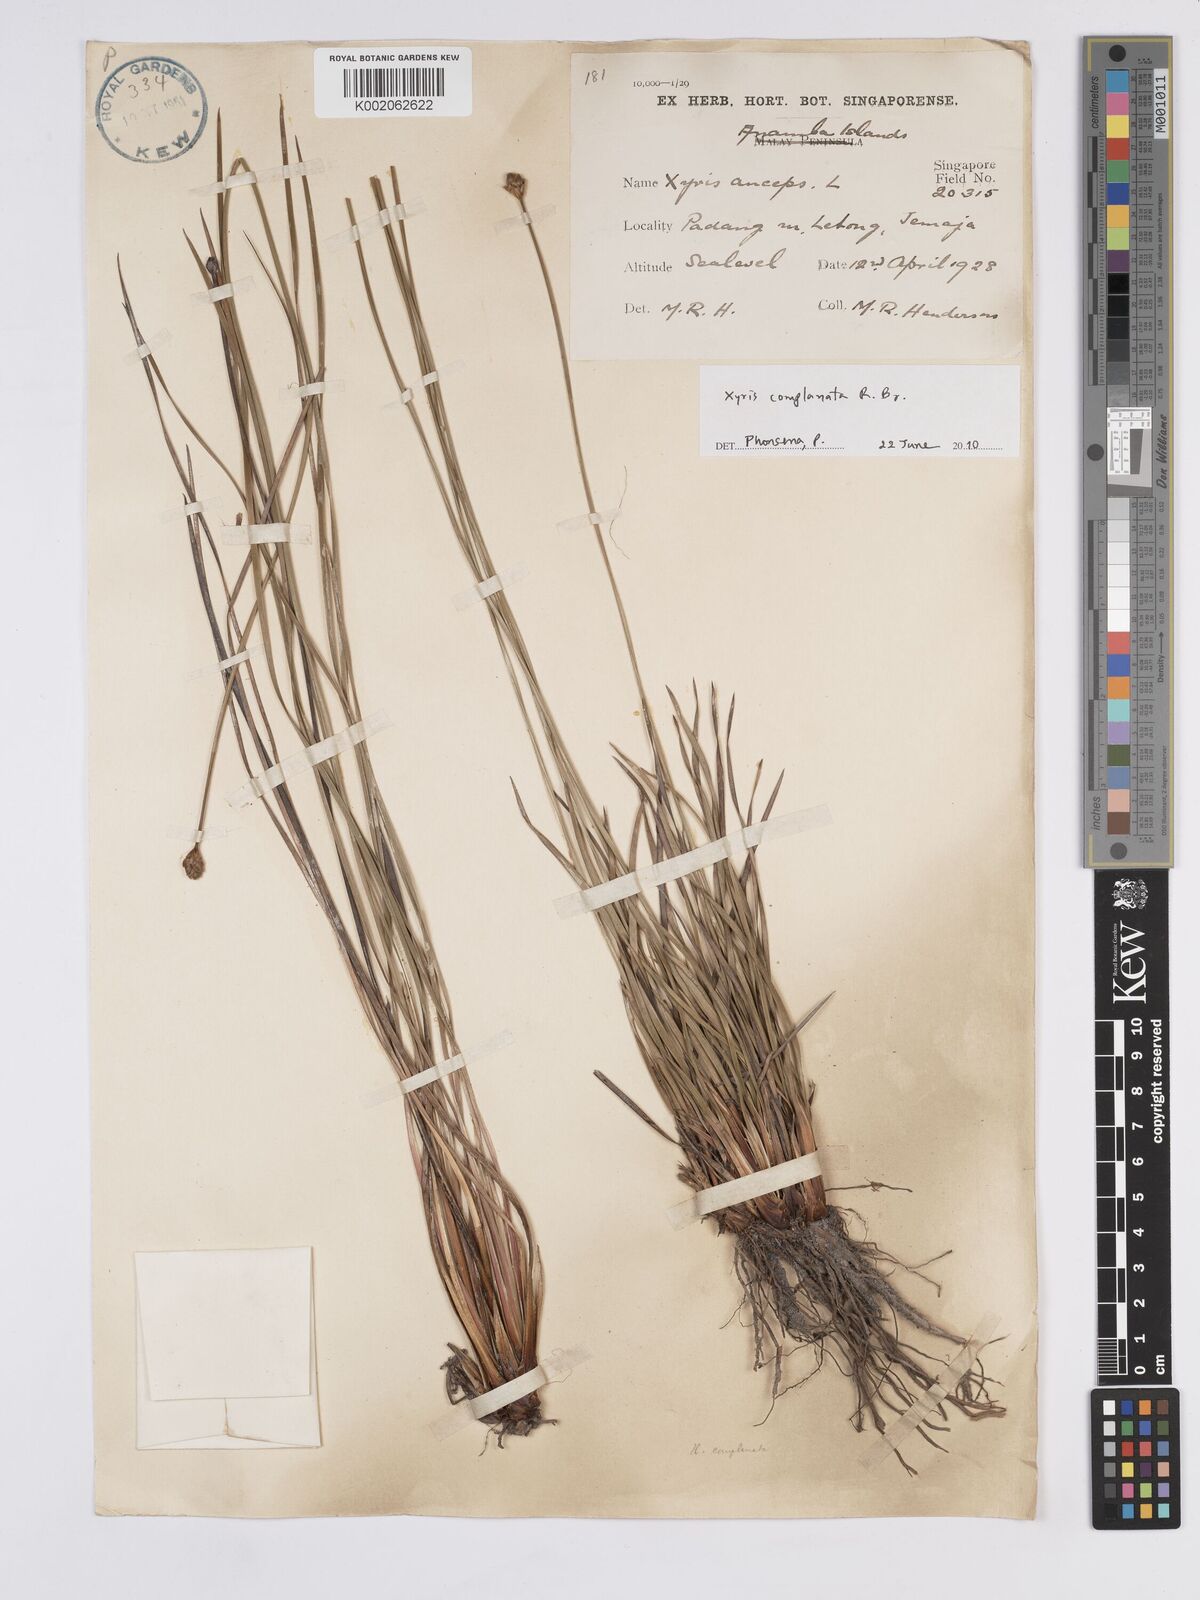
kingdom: Plantae
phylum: Tracheophyta
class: Liliopsida
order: Poales
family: Xyridaceae
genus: Xyris
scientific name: Xyris complanata
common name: Hawai'i yelloweyed grass
